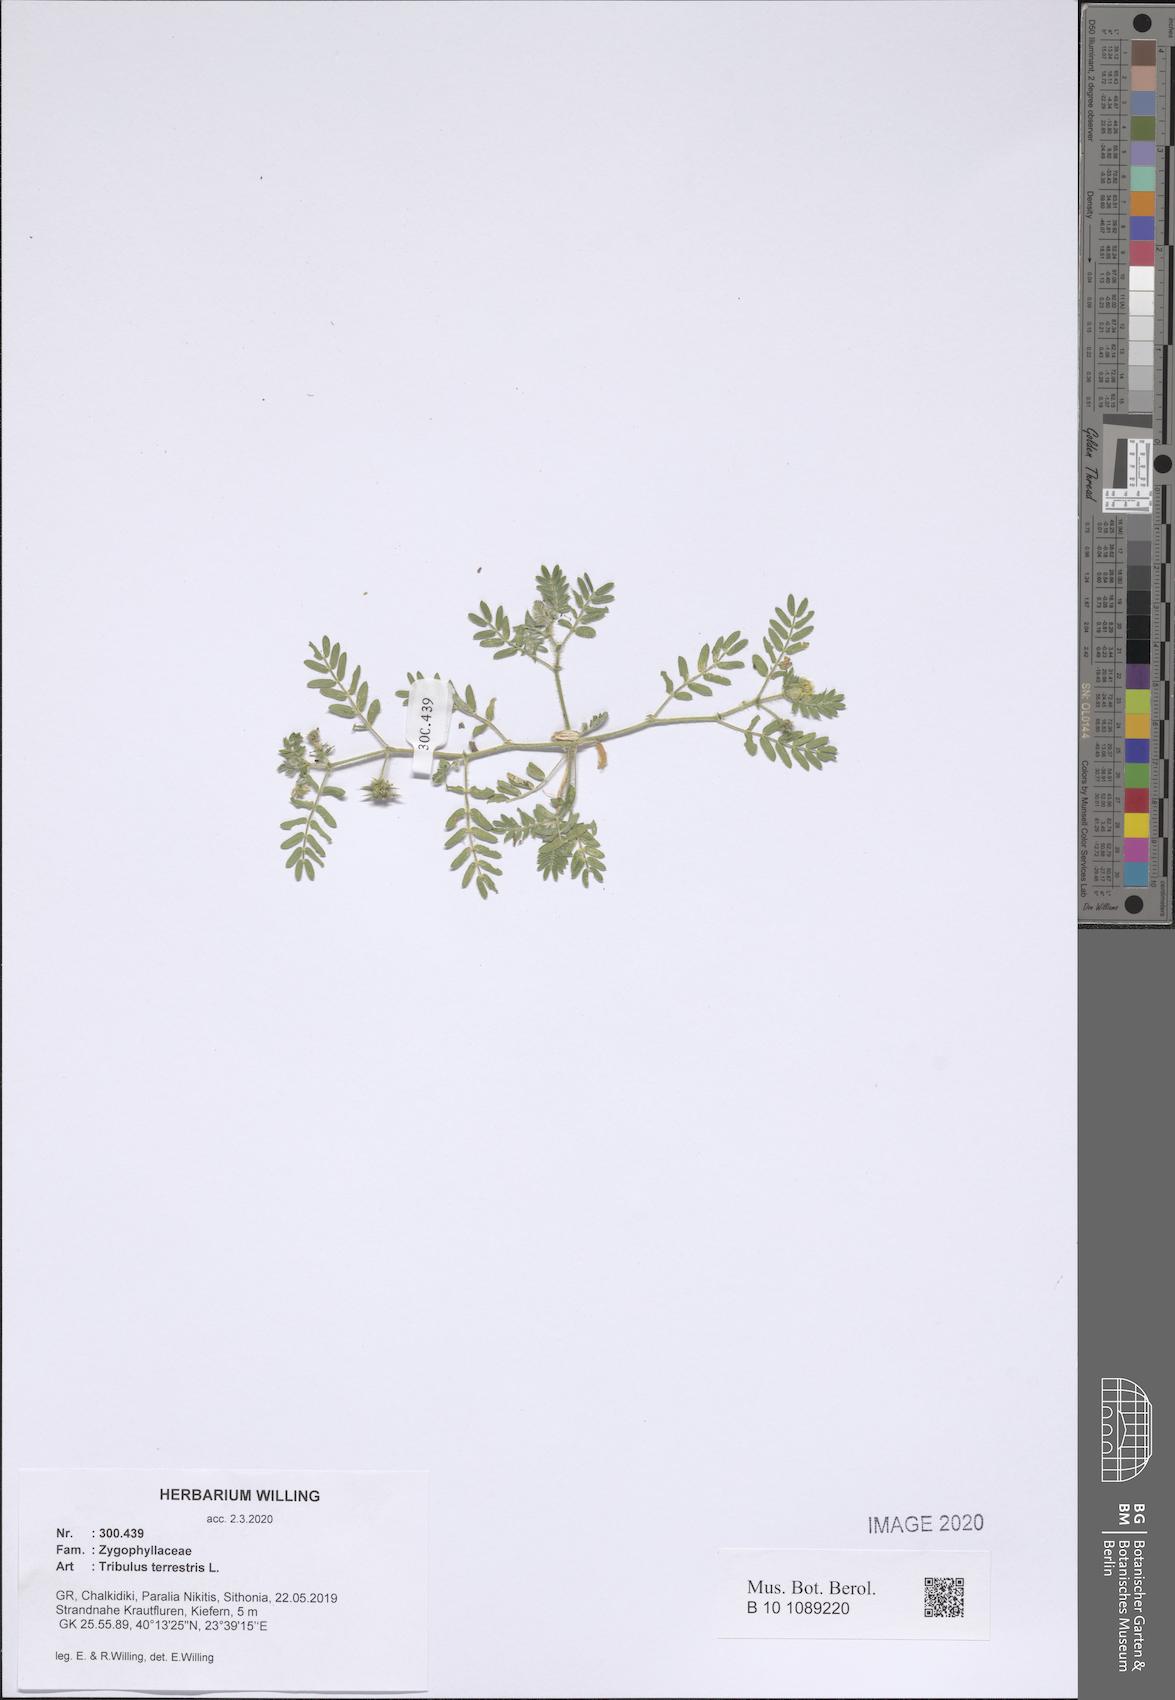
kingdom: Plantae
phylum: Tracheophyta
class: Magnoliopsida
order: Zygophyllales
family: Zygophyllaceae
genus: Tribulus
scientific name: Tribulus terrestris
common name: Puncturevine
